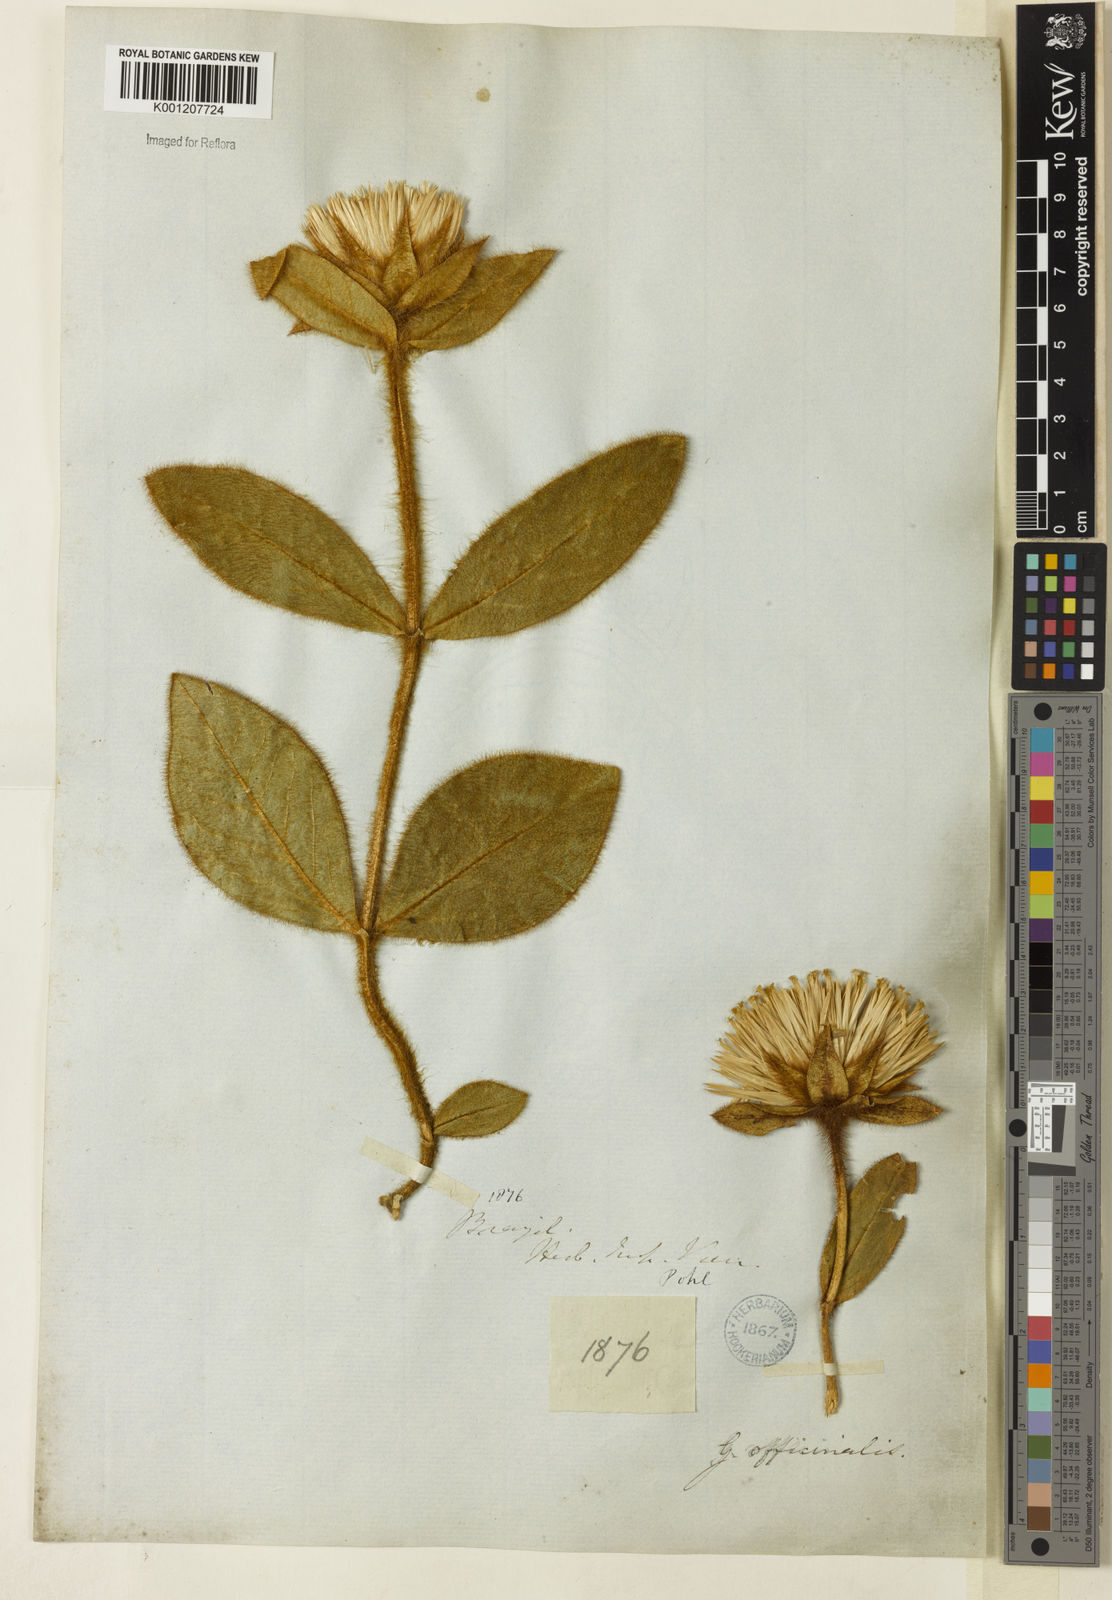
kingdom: Plantae
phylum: Tracheophyta
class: Magnoliopsida
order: Caryophyllales
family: Amaranthaceae
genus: Gomphrena
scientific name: Gomphrena arborescens
